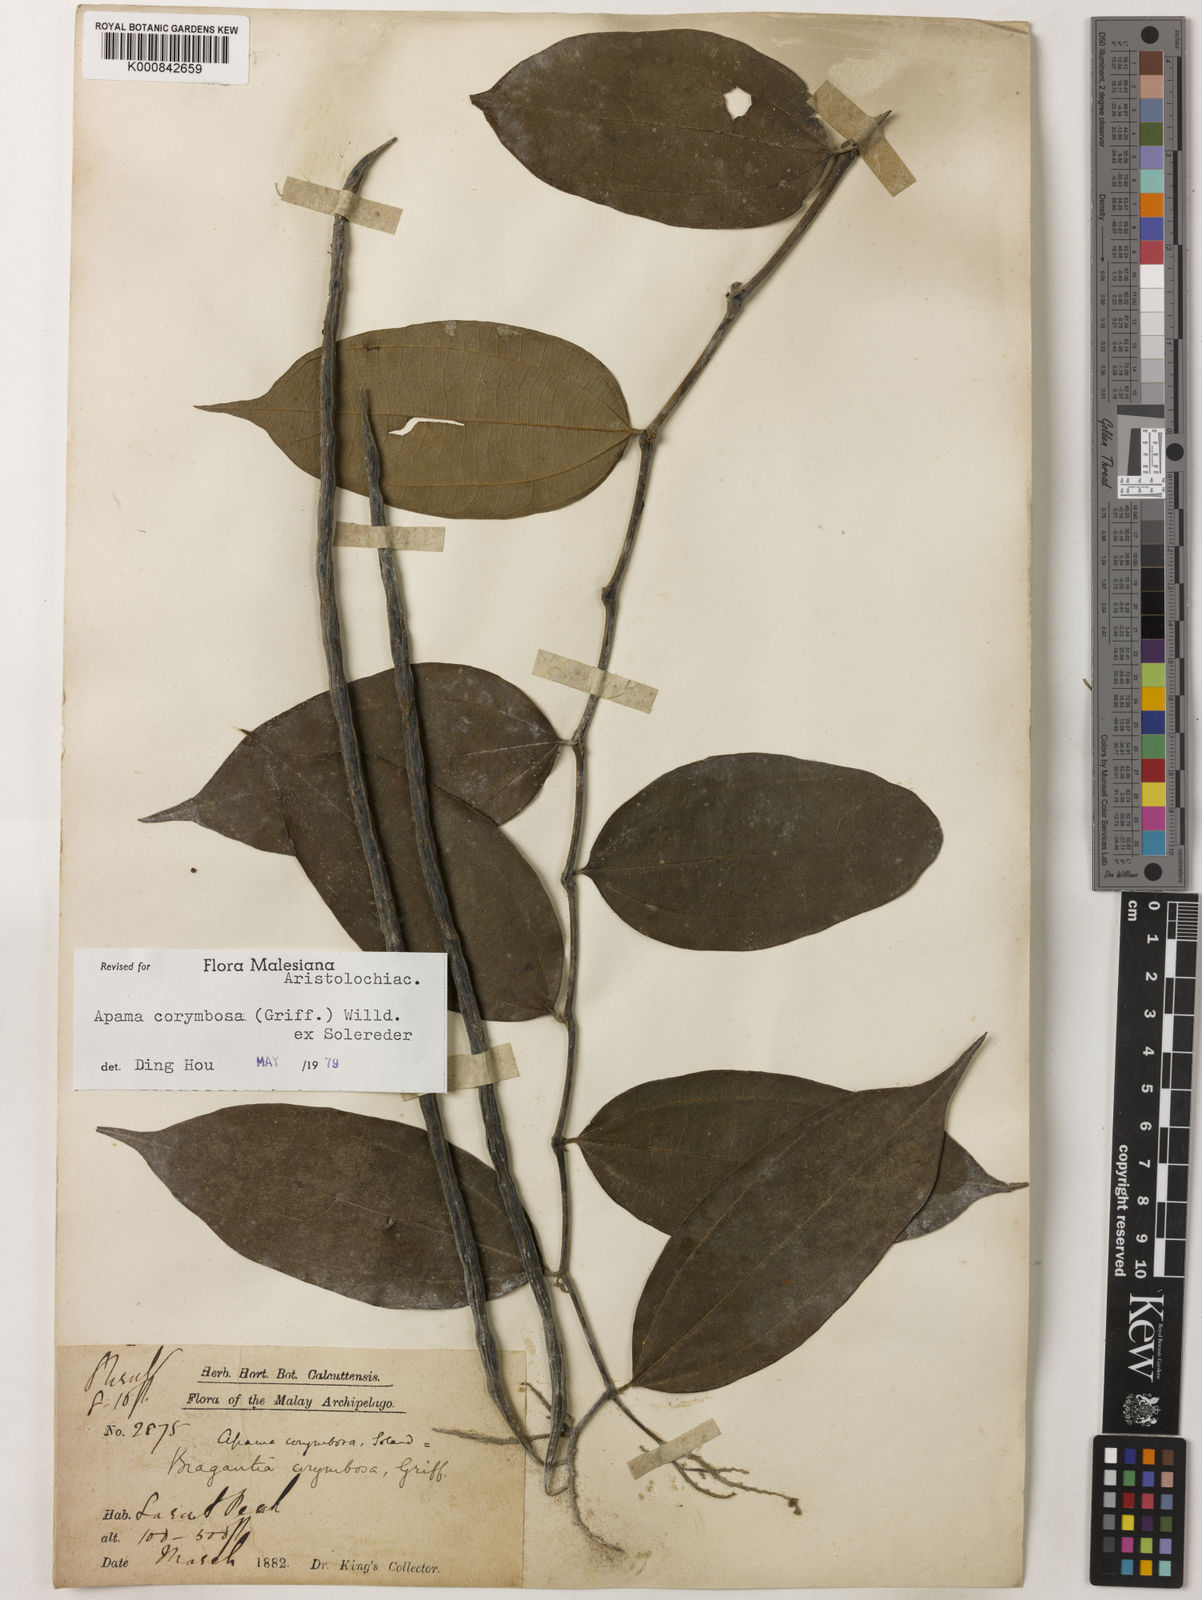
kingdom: Plantae
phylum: Tracheophyta
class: Magnoliopsida
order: Piperales
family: Aristolochiaceae
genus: Thottea
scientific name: Thottea piperiformis
